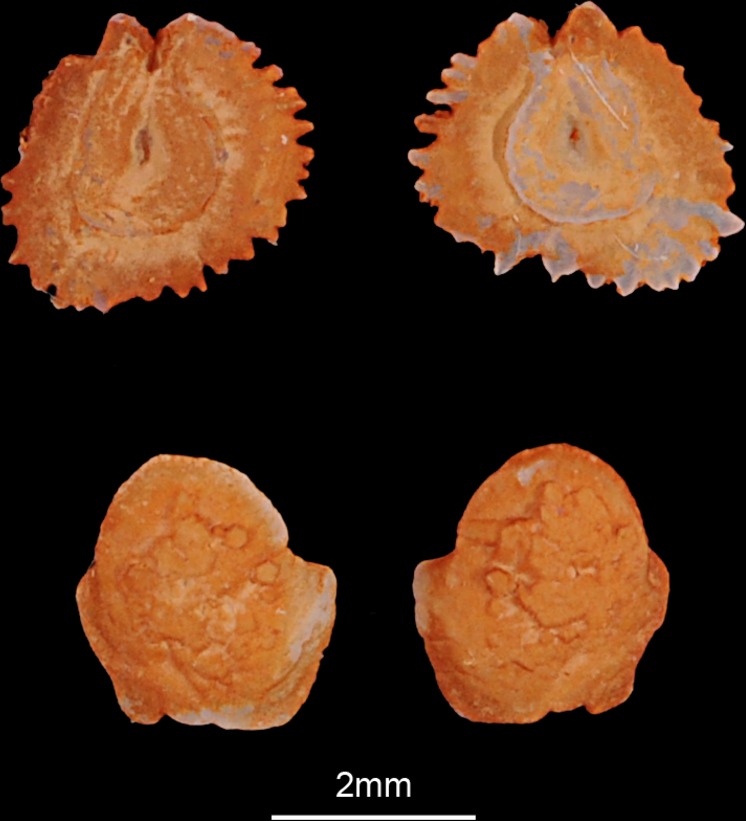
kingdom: Animalia
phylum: Chordata
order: Cypriniformes
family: Cyprinidae
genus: Rutilus
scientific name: Rutilus rutilus
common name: Roach
